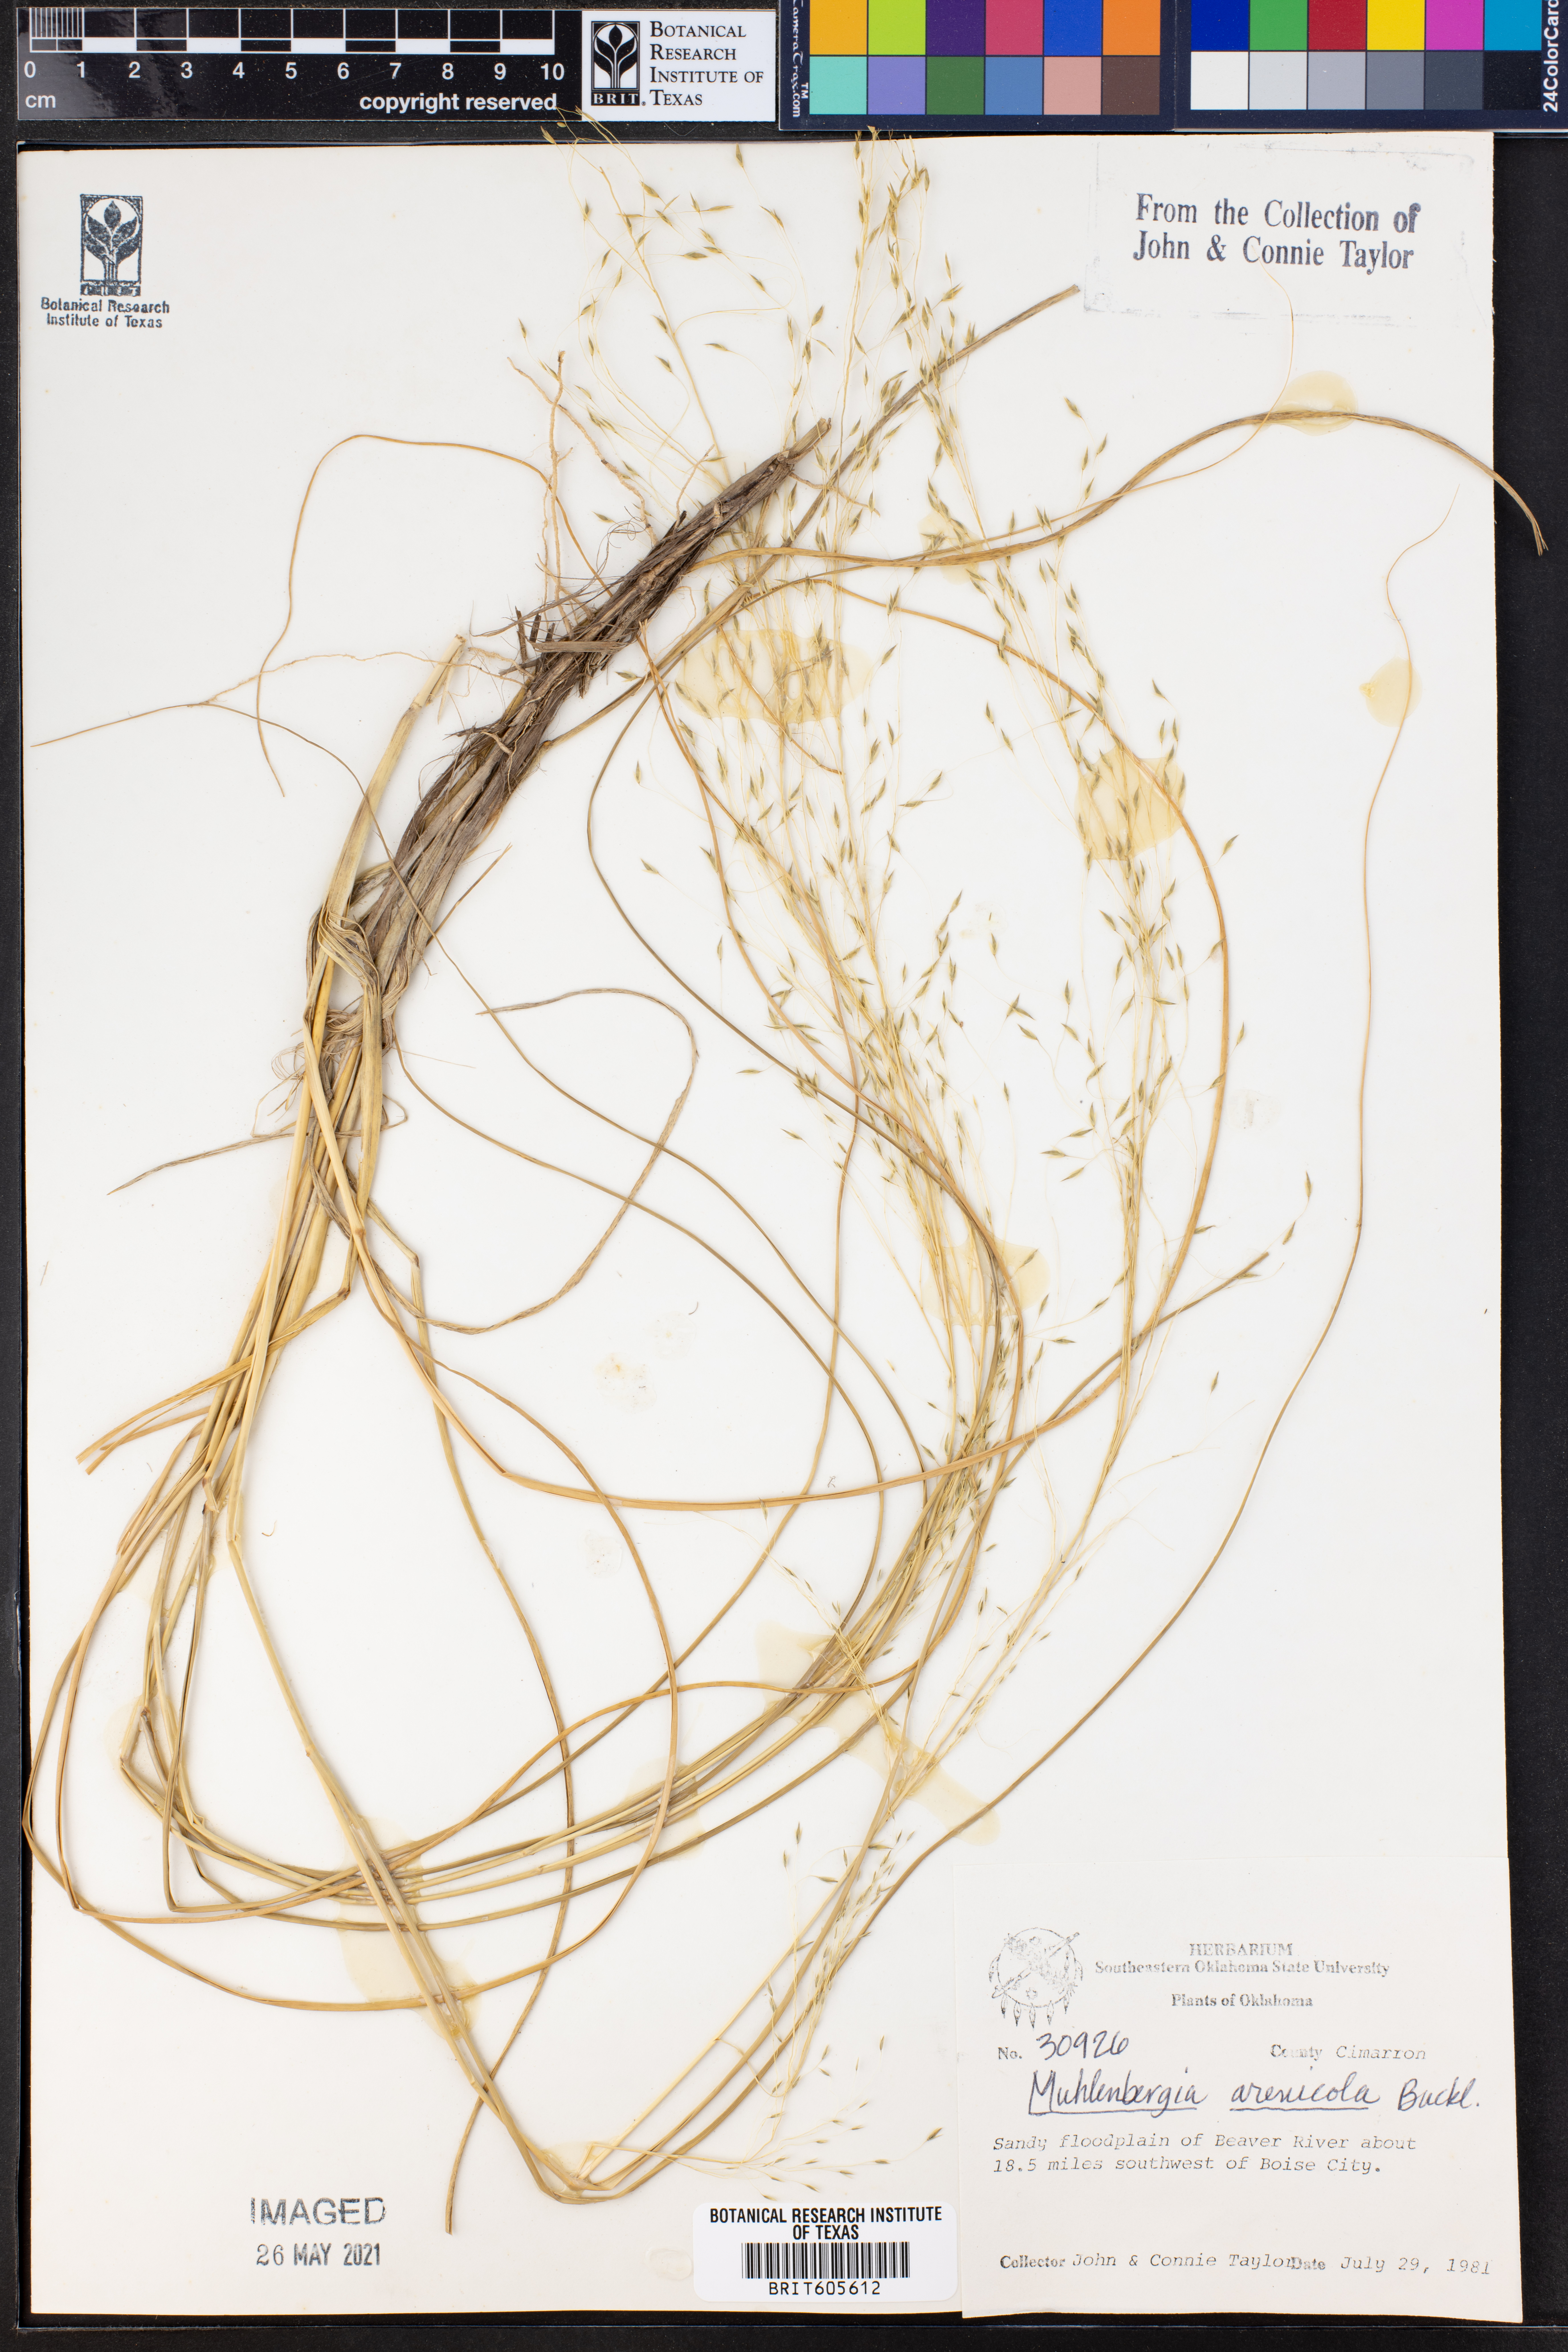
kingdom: Plantae
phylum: Tracheophyta
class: Liliopsida
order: Poales
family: Poaceae
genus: Muhlenbergia
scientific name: Muhlenbergia arenicola
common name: Sand muhly
